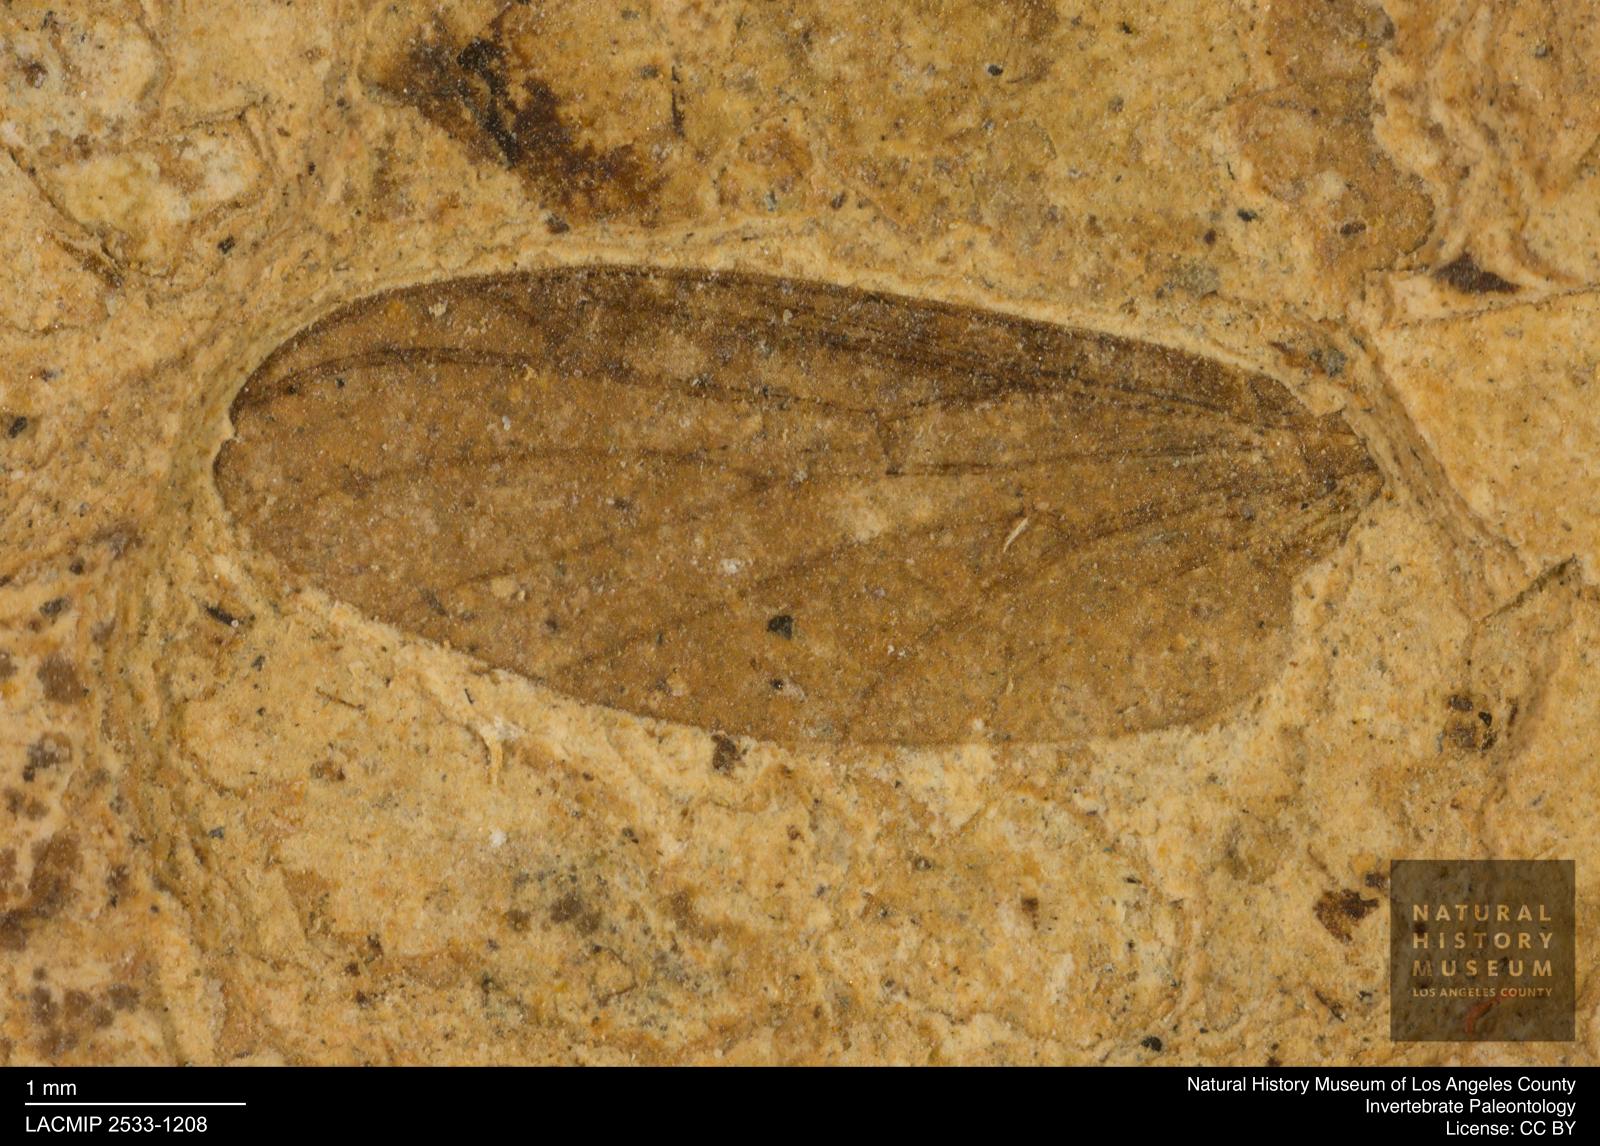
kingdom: Animalia
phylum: Arthropoda
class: Insecta
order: Diptera
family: Bibionidae
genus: Plecia
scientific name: Plecia pinguis
